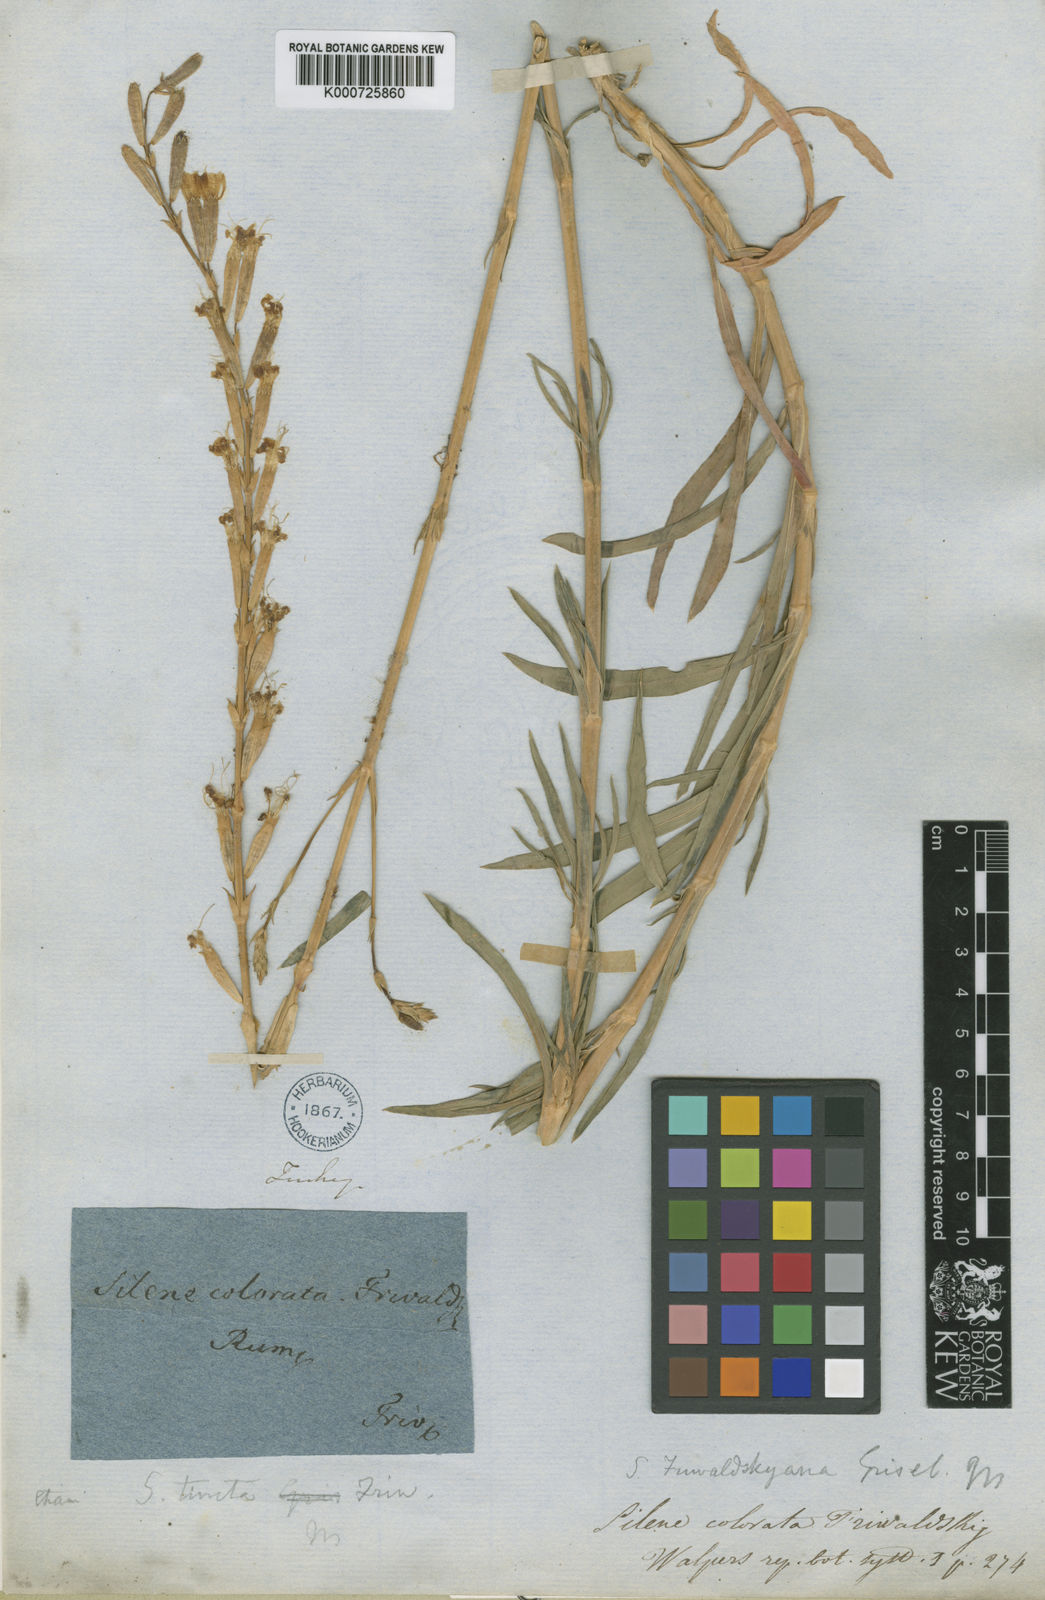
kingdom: Plantae
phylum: Tracheophyta
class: Magnoliopsida
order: Caryophyllales
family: Caryophyllaceae
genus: Silene
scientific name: Silene
